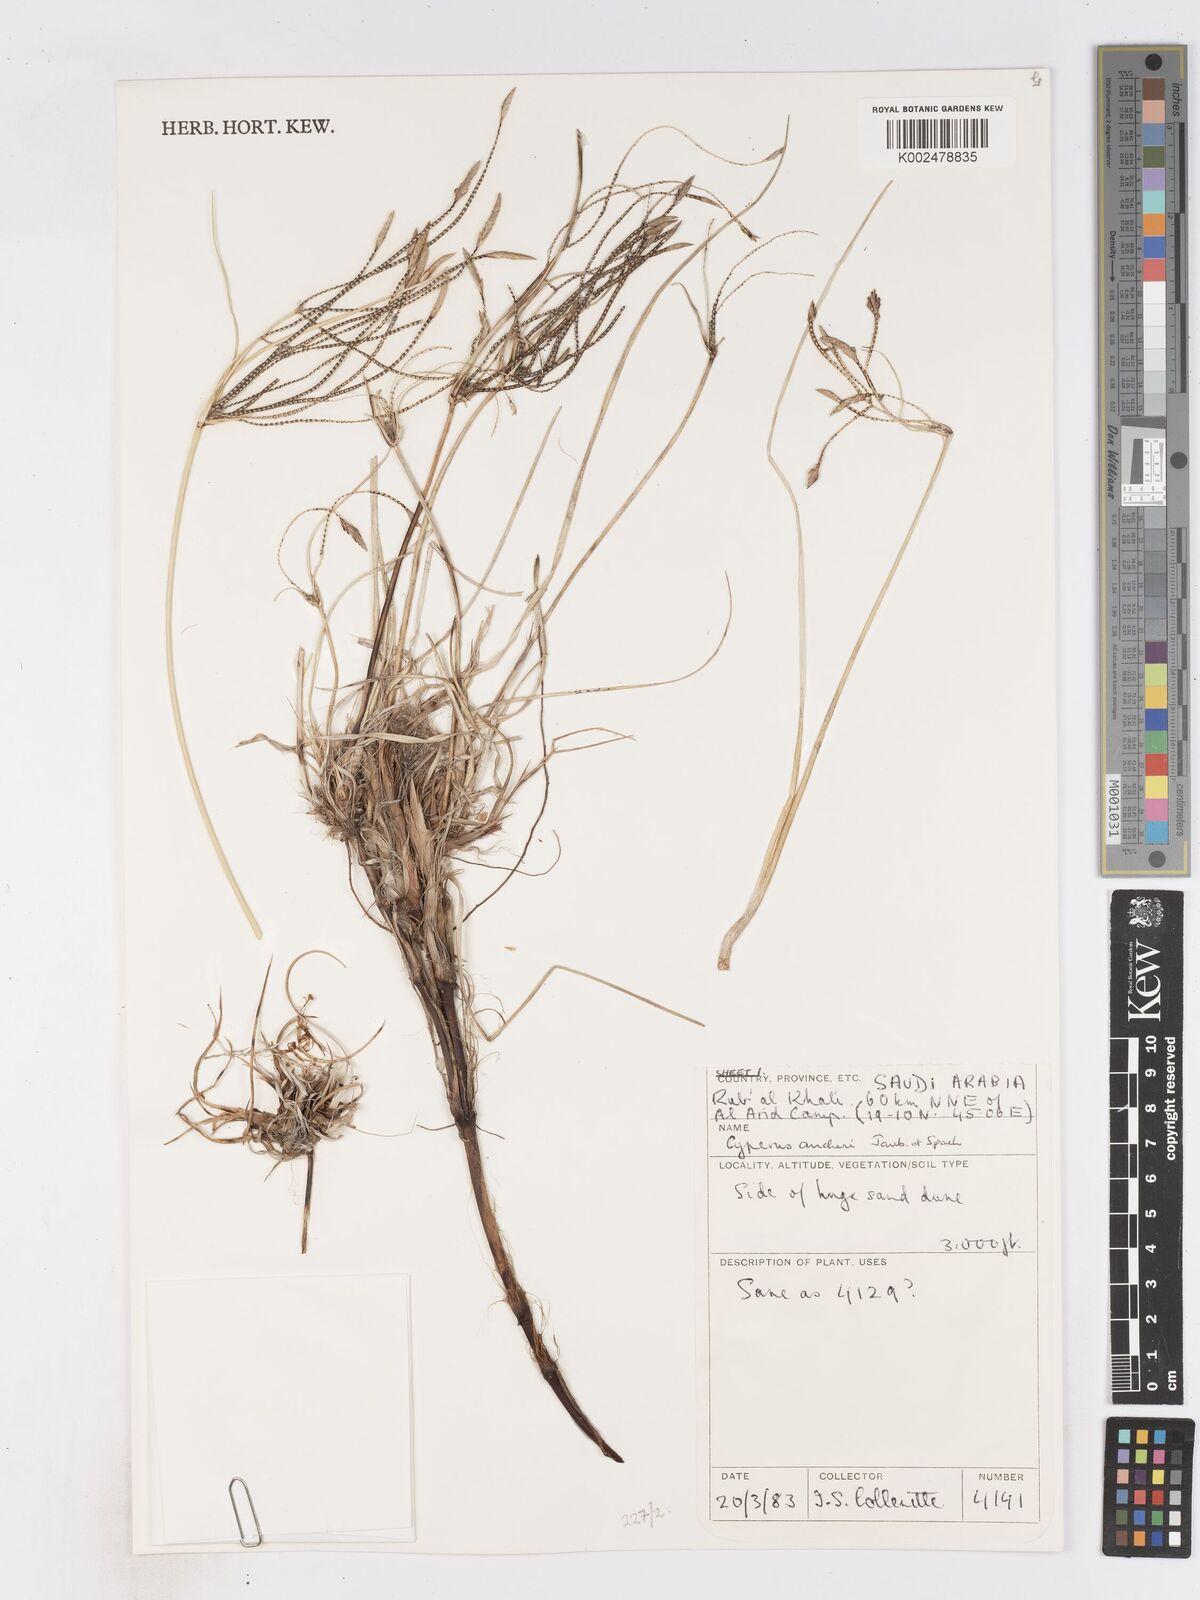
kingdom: Plantae
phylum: Tracheophyta
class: Liliopsida
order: Poales
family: Cyperaceae
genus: Cyperus
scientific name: Cyperus aucheri
